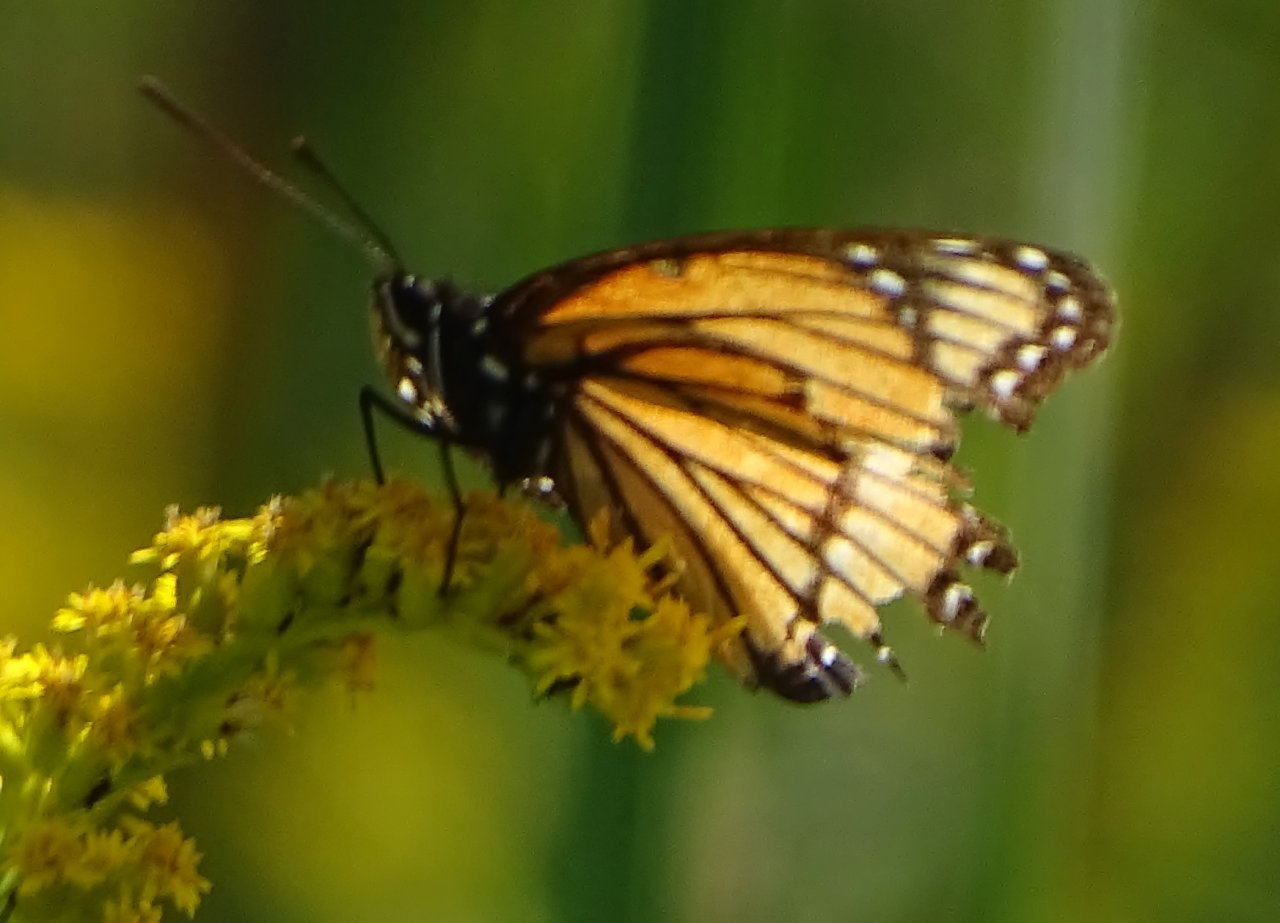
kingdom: Animalia
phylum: Arthropoda
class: Insecta
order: Lepidoptera
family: Nymphalidae
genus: Limenitis
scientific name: Limenitis archippus
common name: Viceroy
